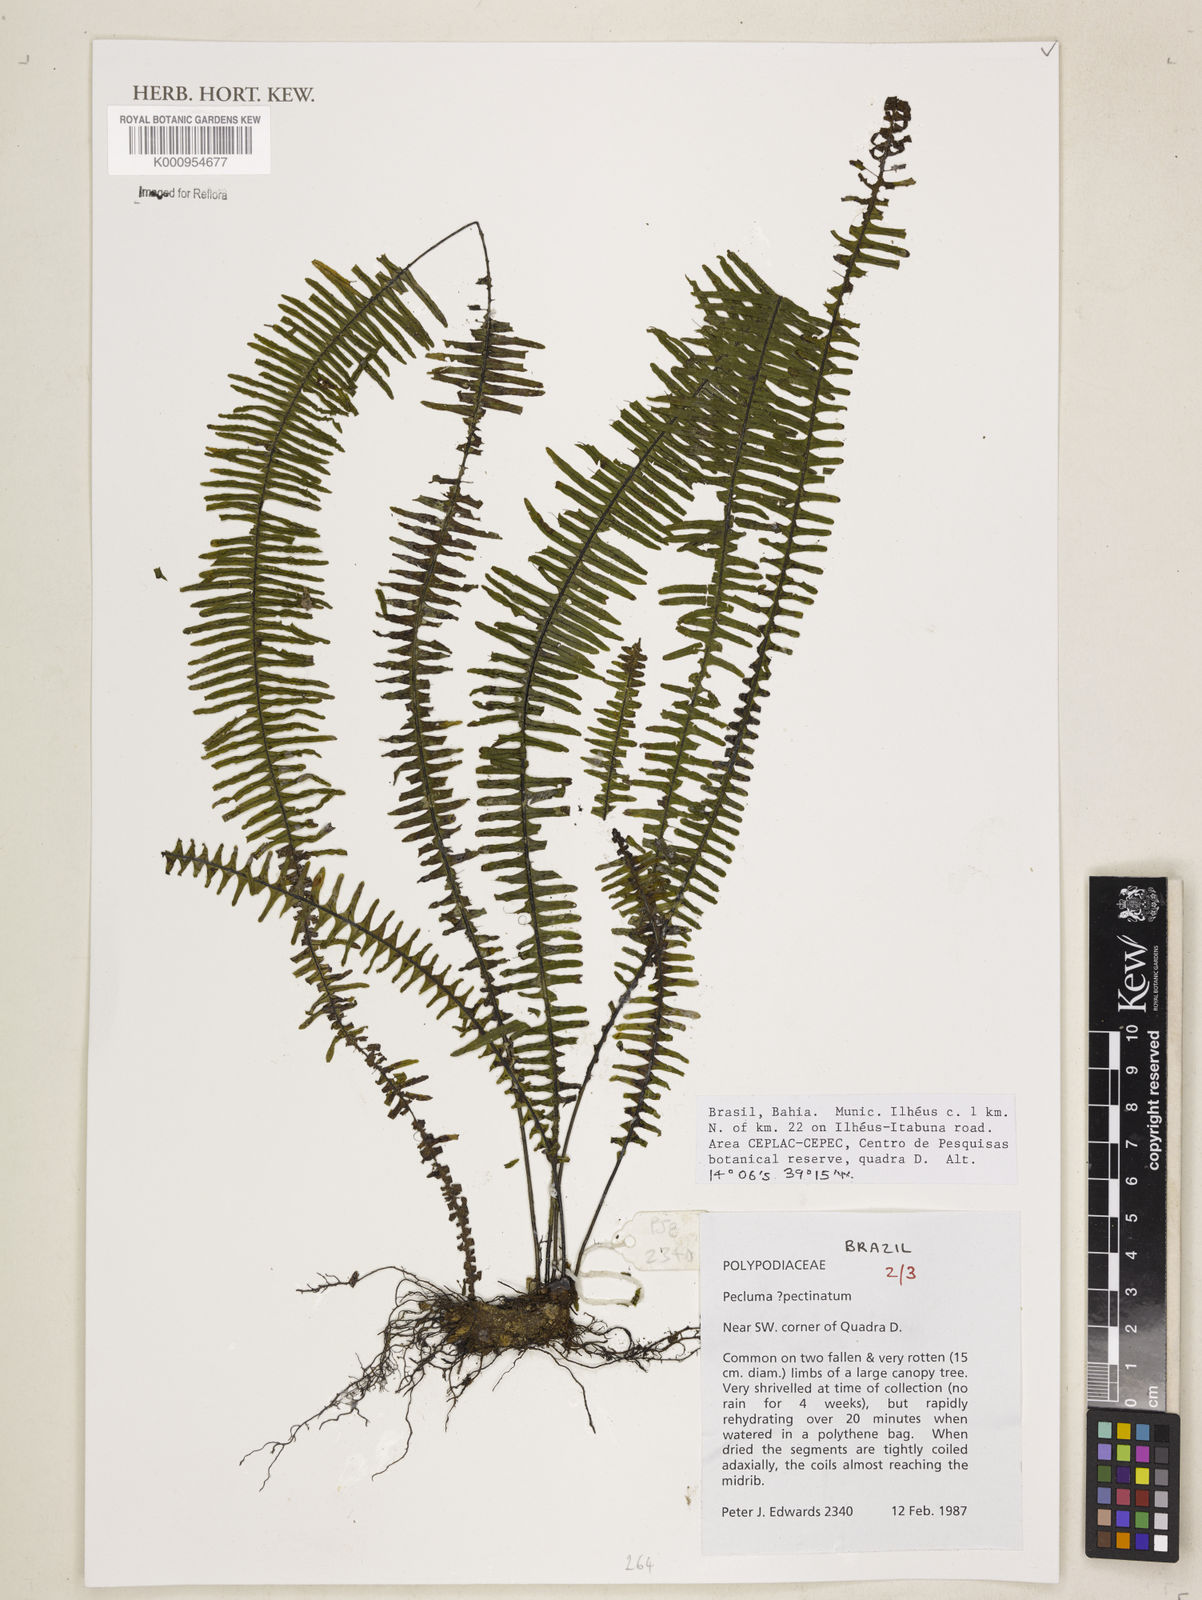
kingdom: Plantae
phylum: Tracheophyta
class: Polypodiopsida
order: Polypodiales
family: Polypodiaceae
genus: Pecluma
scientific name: Pecluma pectinata
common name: Msasa fern
